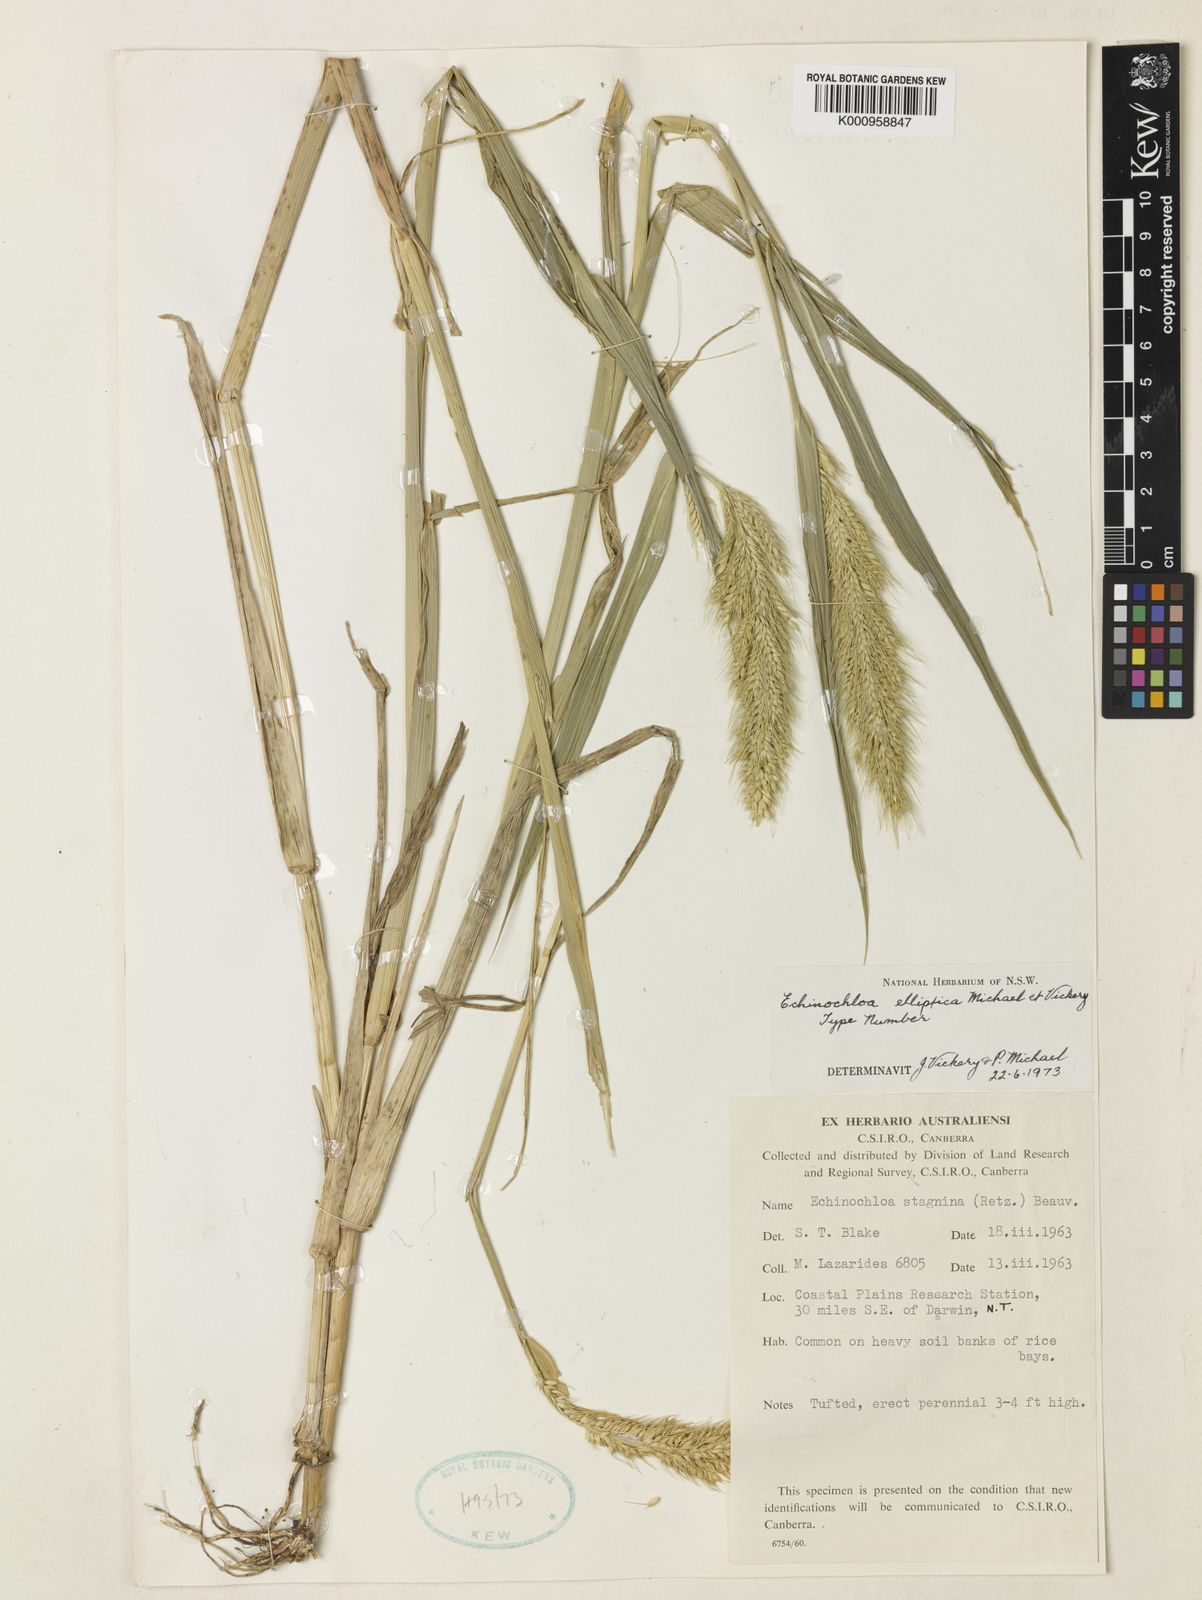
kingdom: Plantae
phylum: Tracheophyta
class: Liliopsida
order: Poales
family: Poaceae
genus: Echinochloa
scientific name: Echinochloa elliptica
